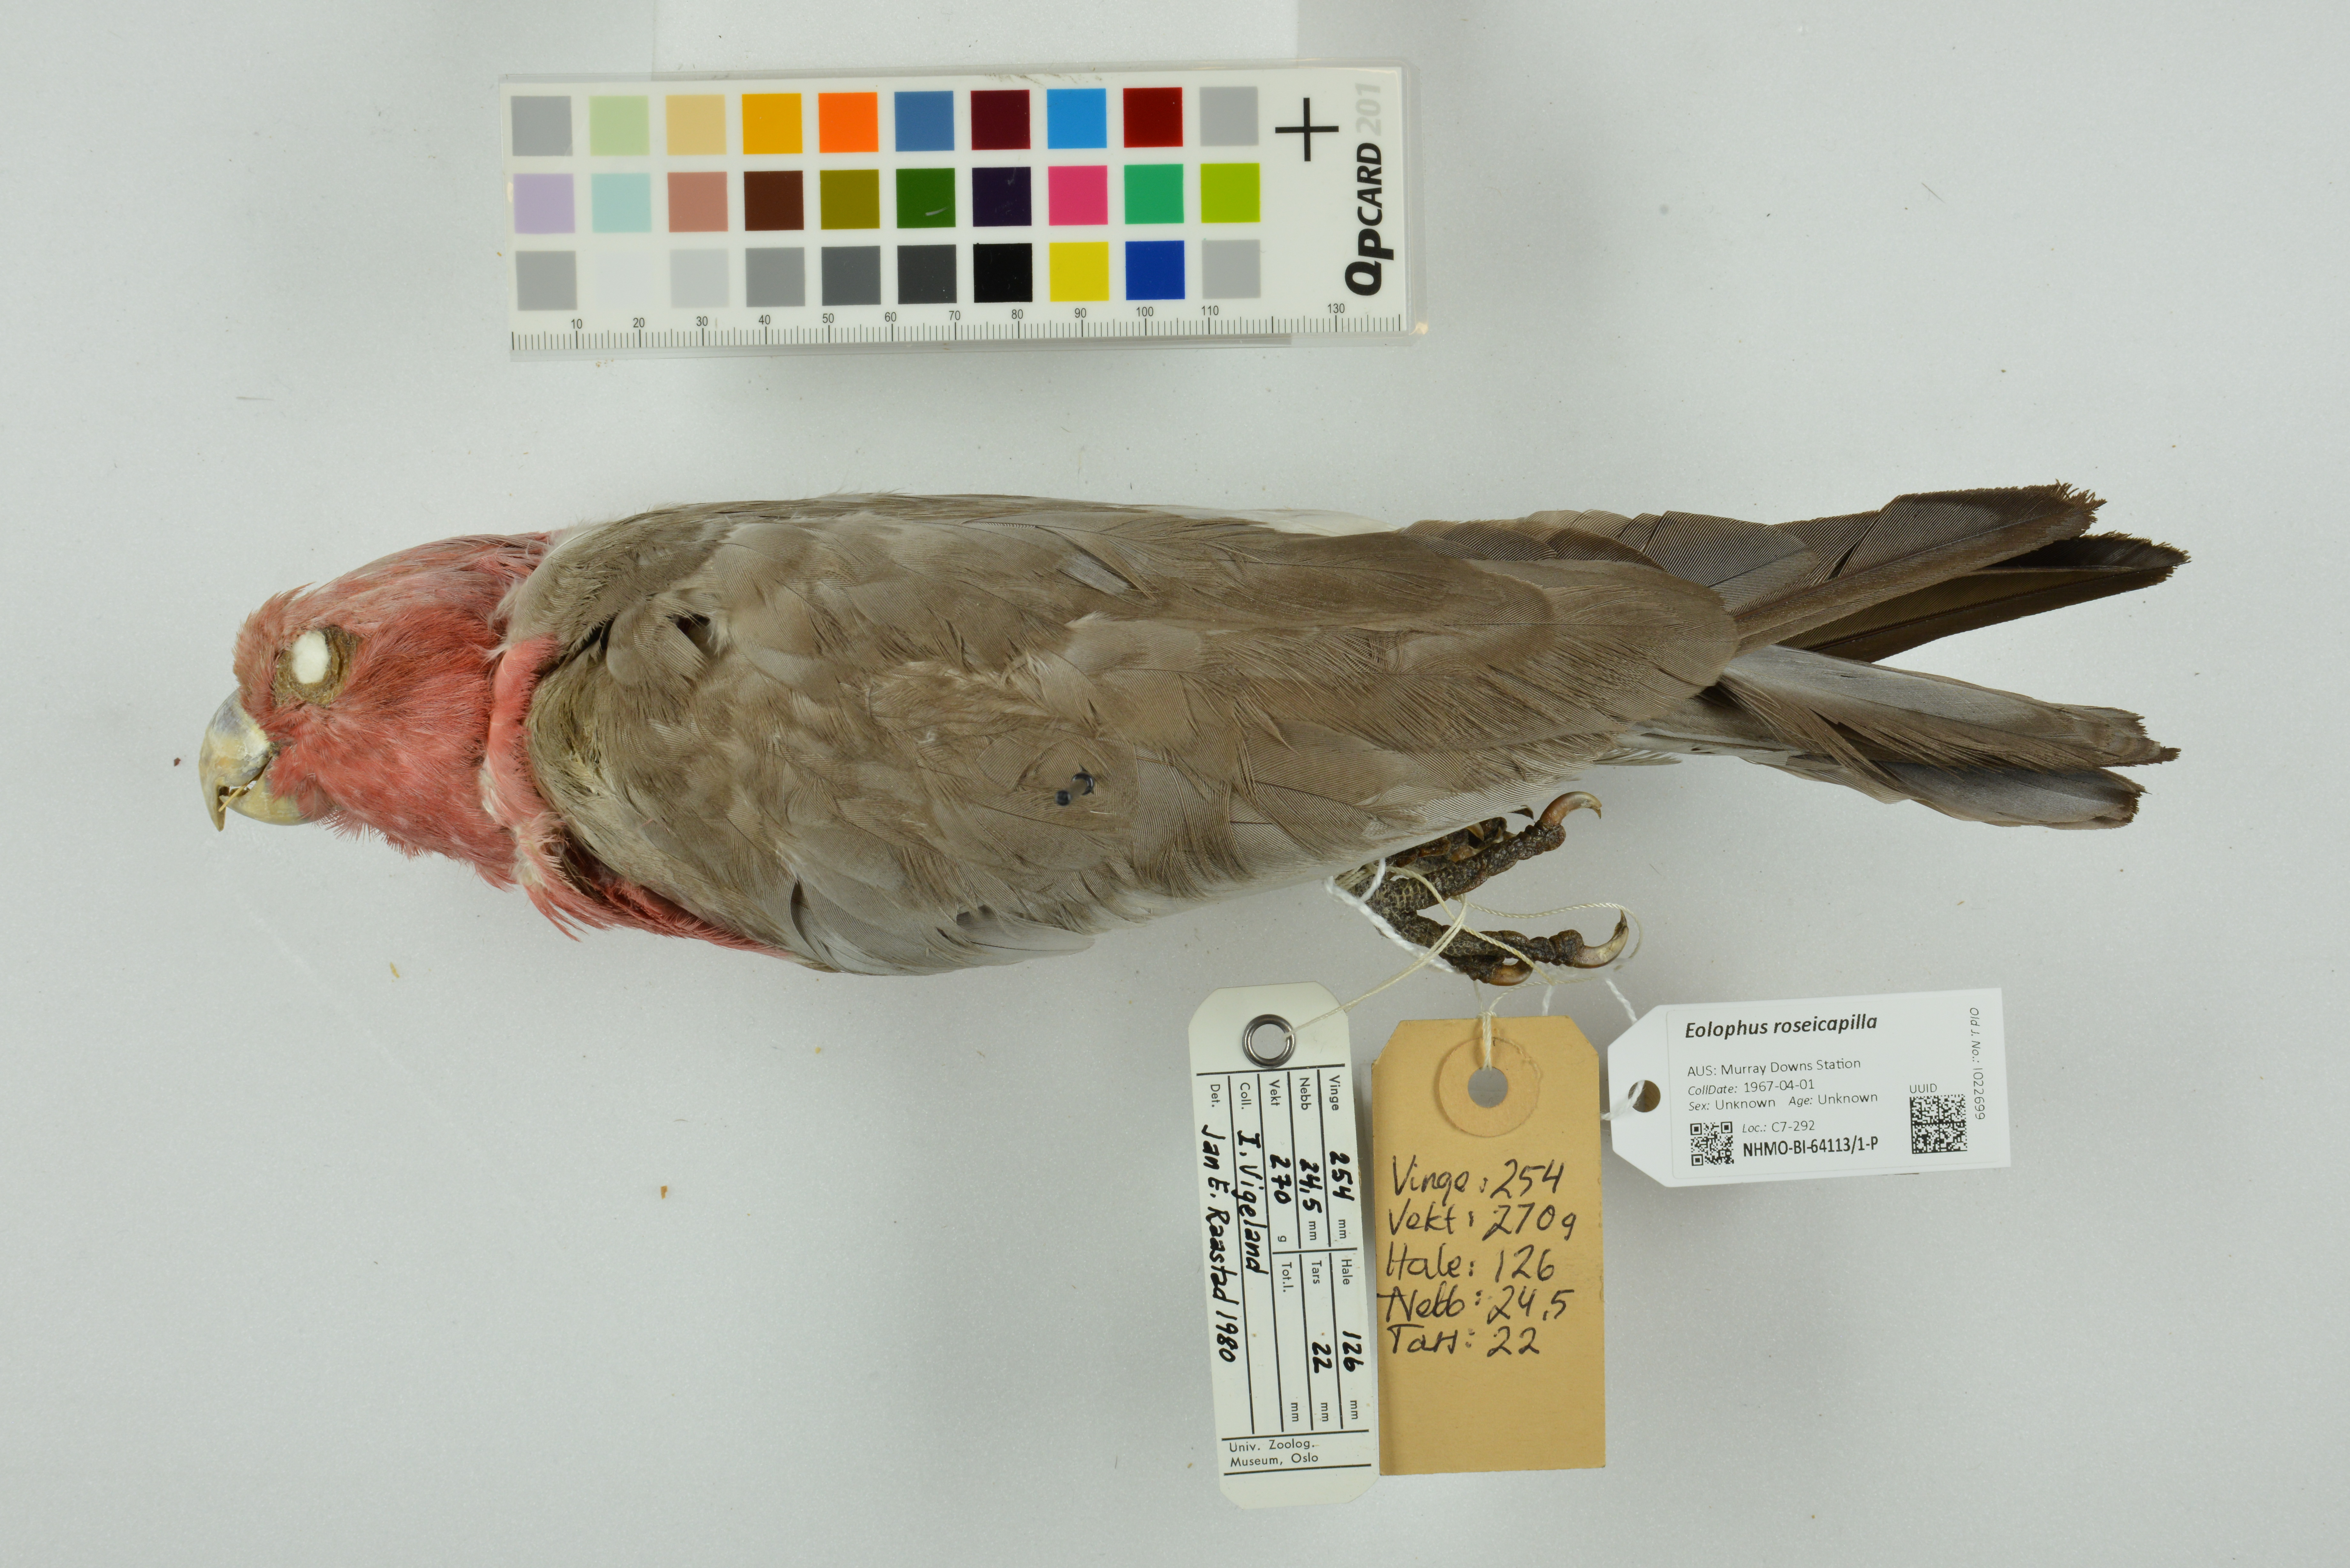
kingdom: Animalia
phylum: Chordata
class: Aves
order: Psittaciformes
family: Psittacidae
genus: Eolophus
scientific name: Eolophus roseicapilla
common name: Galah
